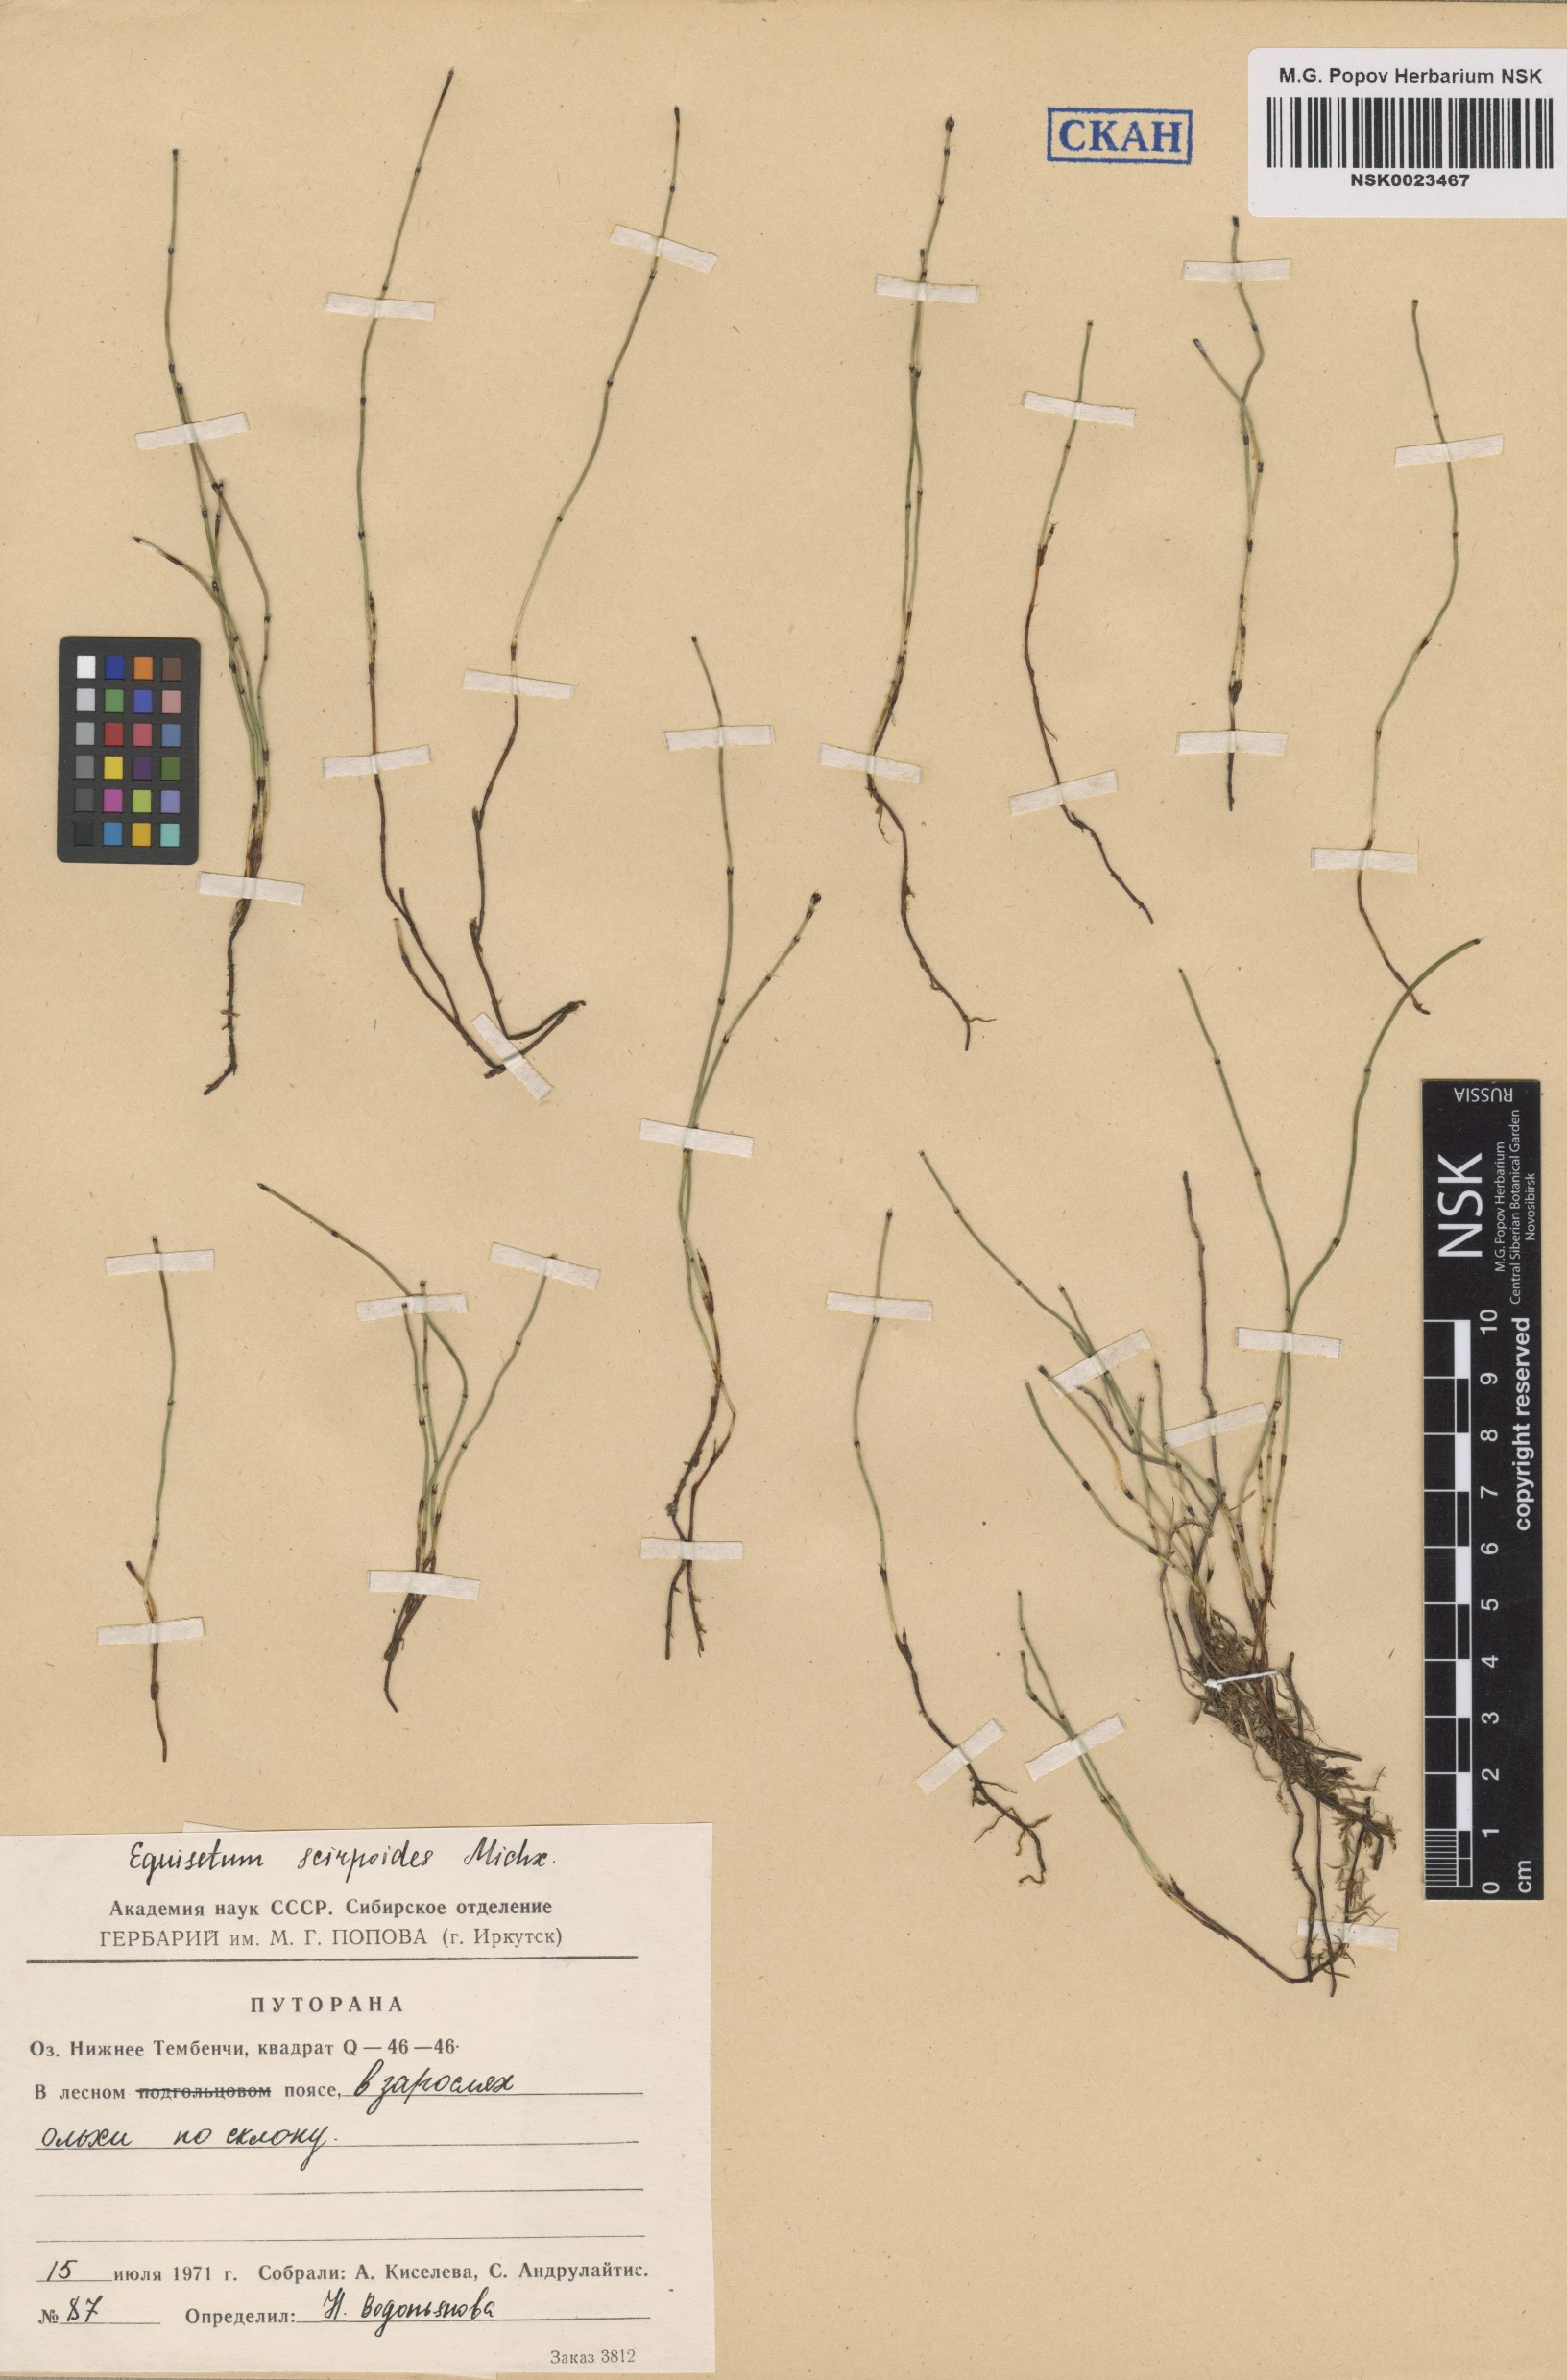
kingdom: Plantae
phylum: Tracheophyta
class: Polypodiopsida
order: Equisetales
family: Equisetaceae
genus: Equisetum
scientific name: Equisetum scirpoides
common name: Delicate horsetail
